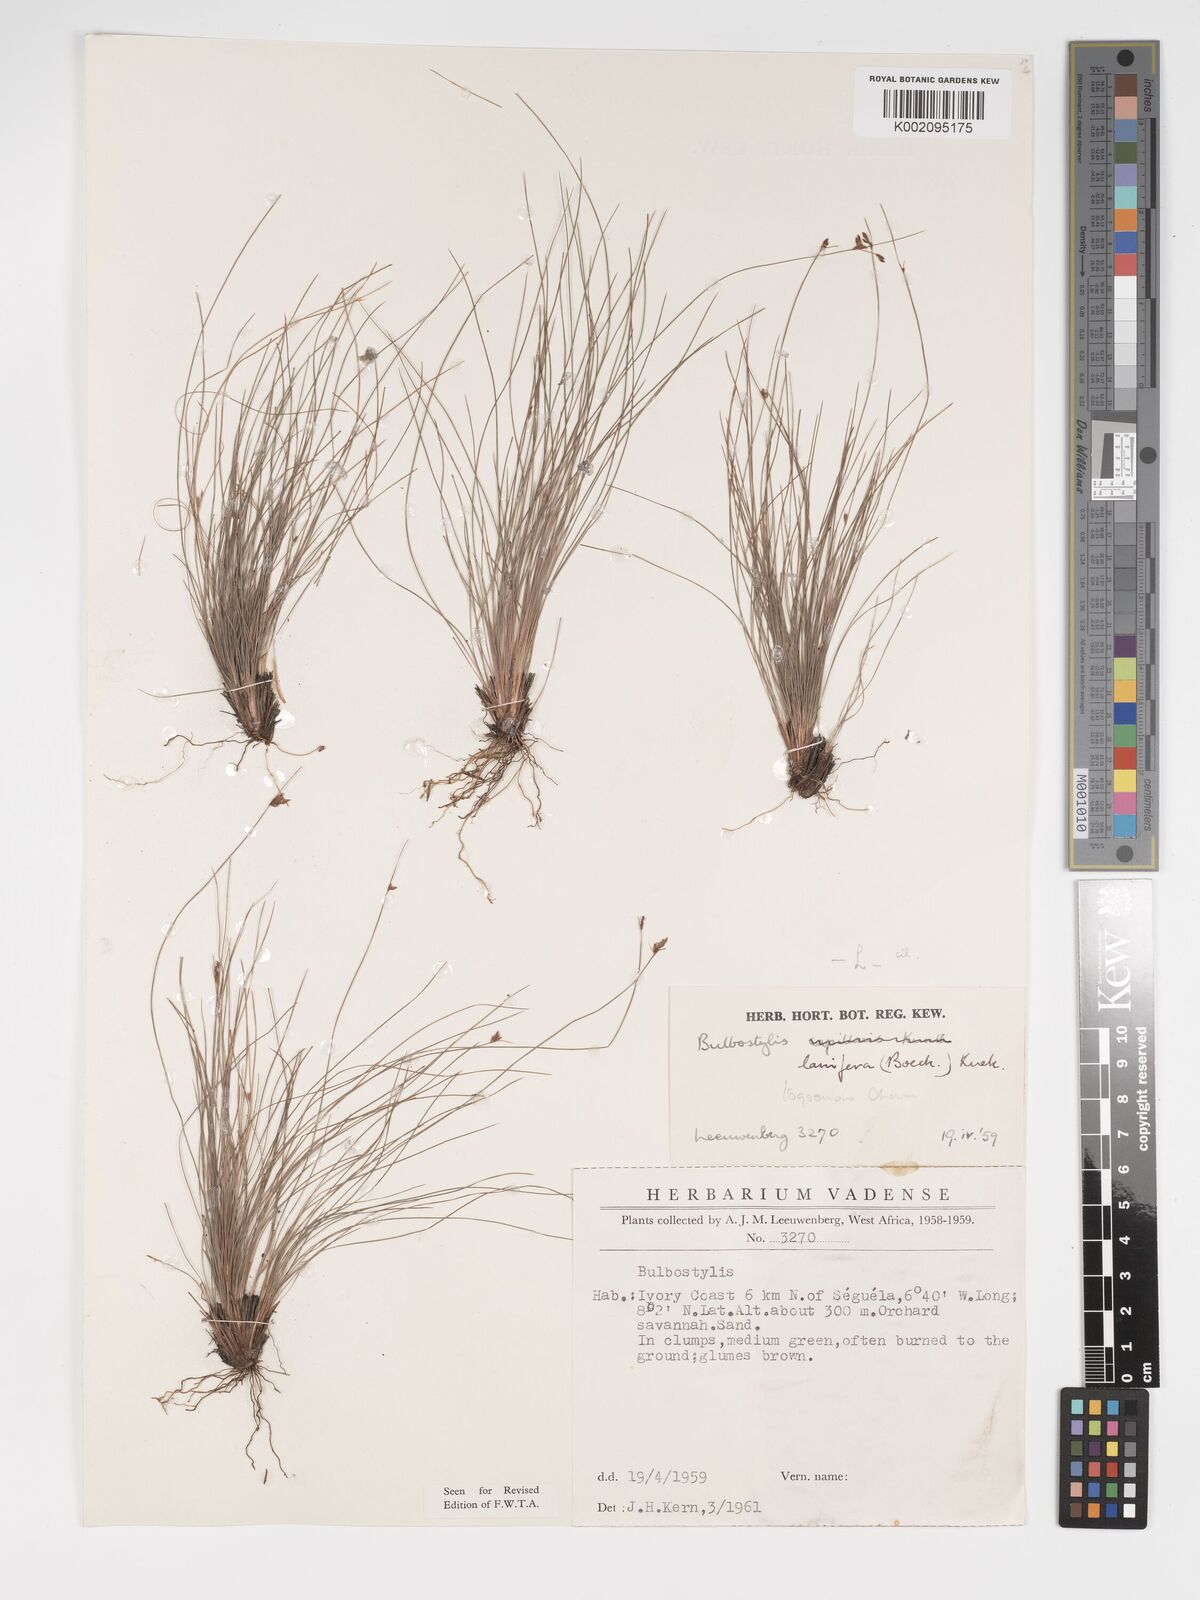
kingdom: Plantae
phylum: Tracheophyta
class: Liliopsida
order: Poales
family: Cyperaceae
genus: Bulbostylis
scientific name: Bulbostylis lanifera
